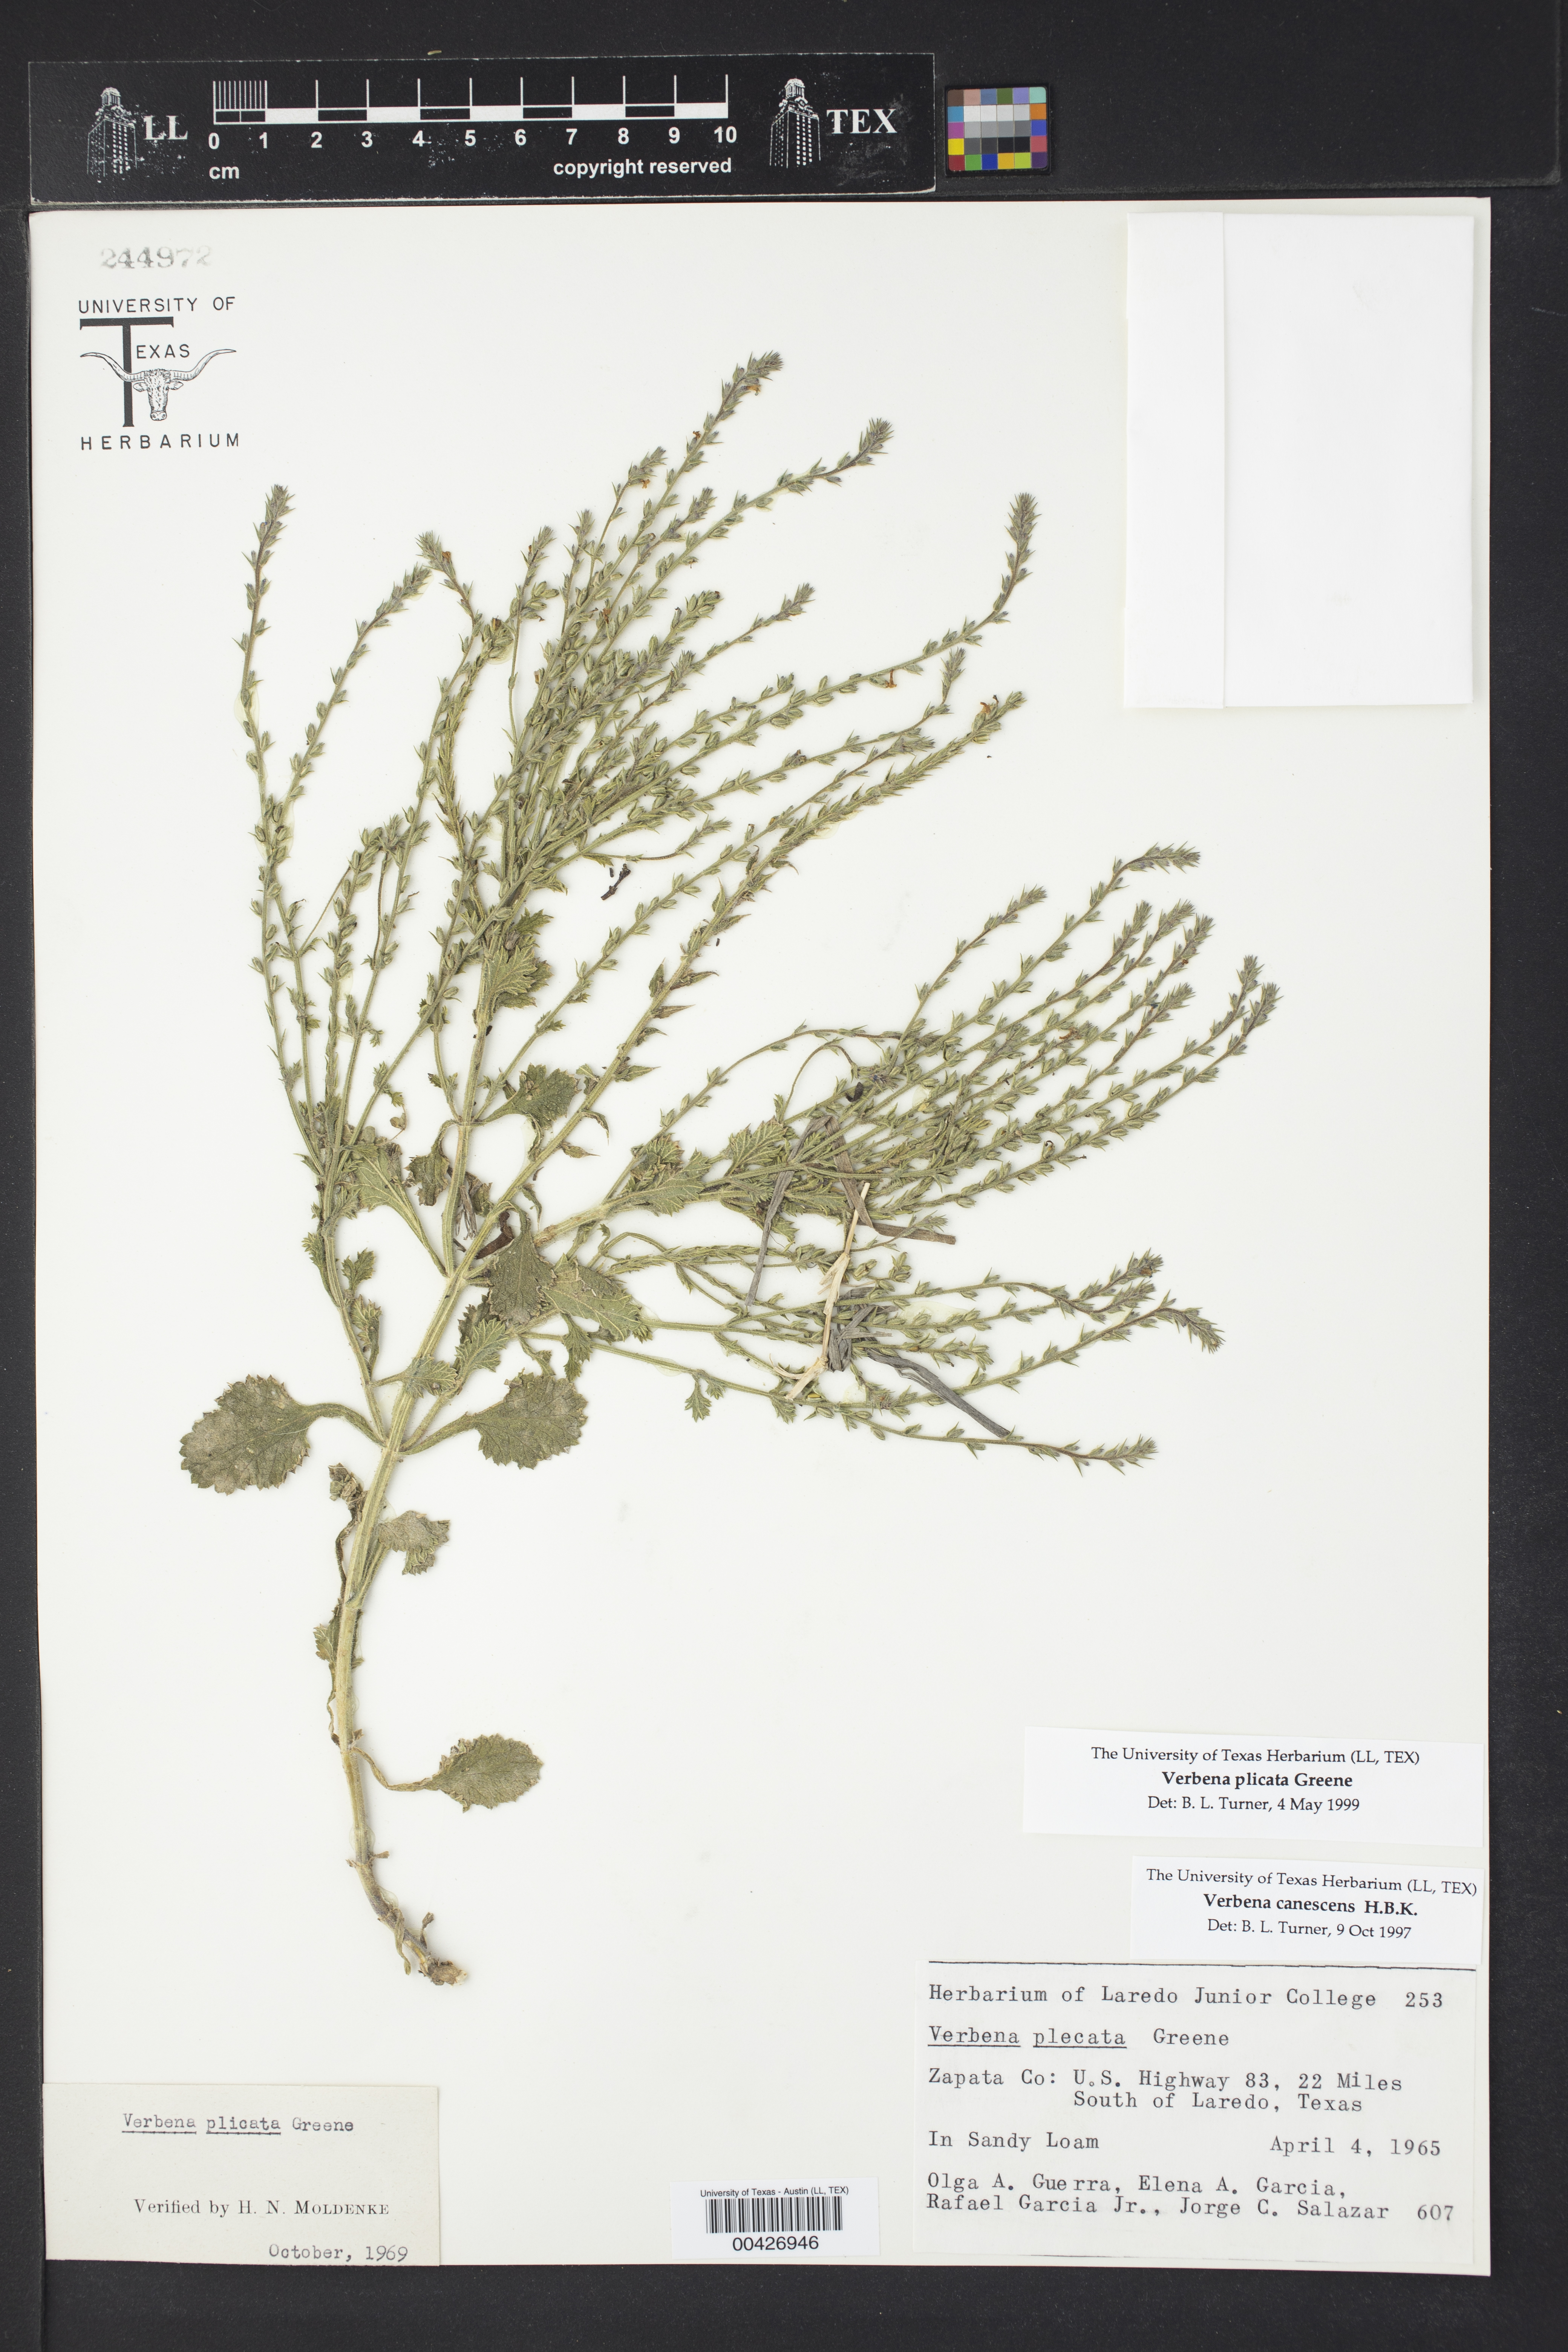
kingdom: Plantae
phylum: Tracheophyta
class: Magnoliopsida
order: Lamiales
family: Verbenaceae
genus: Verbena
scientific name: Verbena plicata
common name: Fan-leaf vervain
